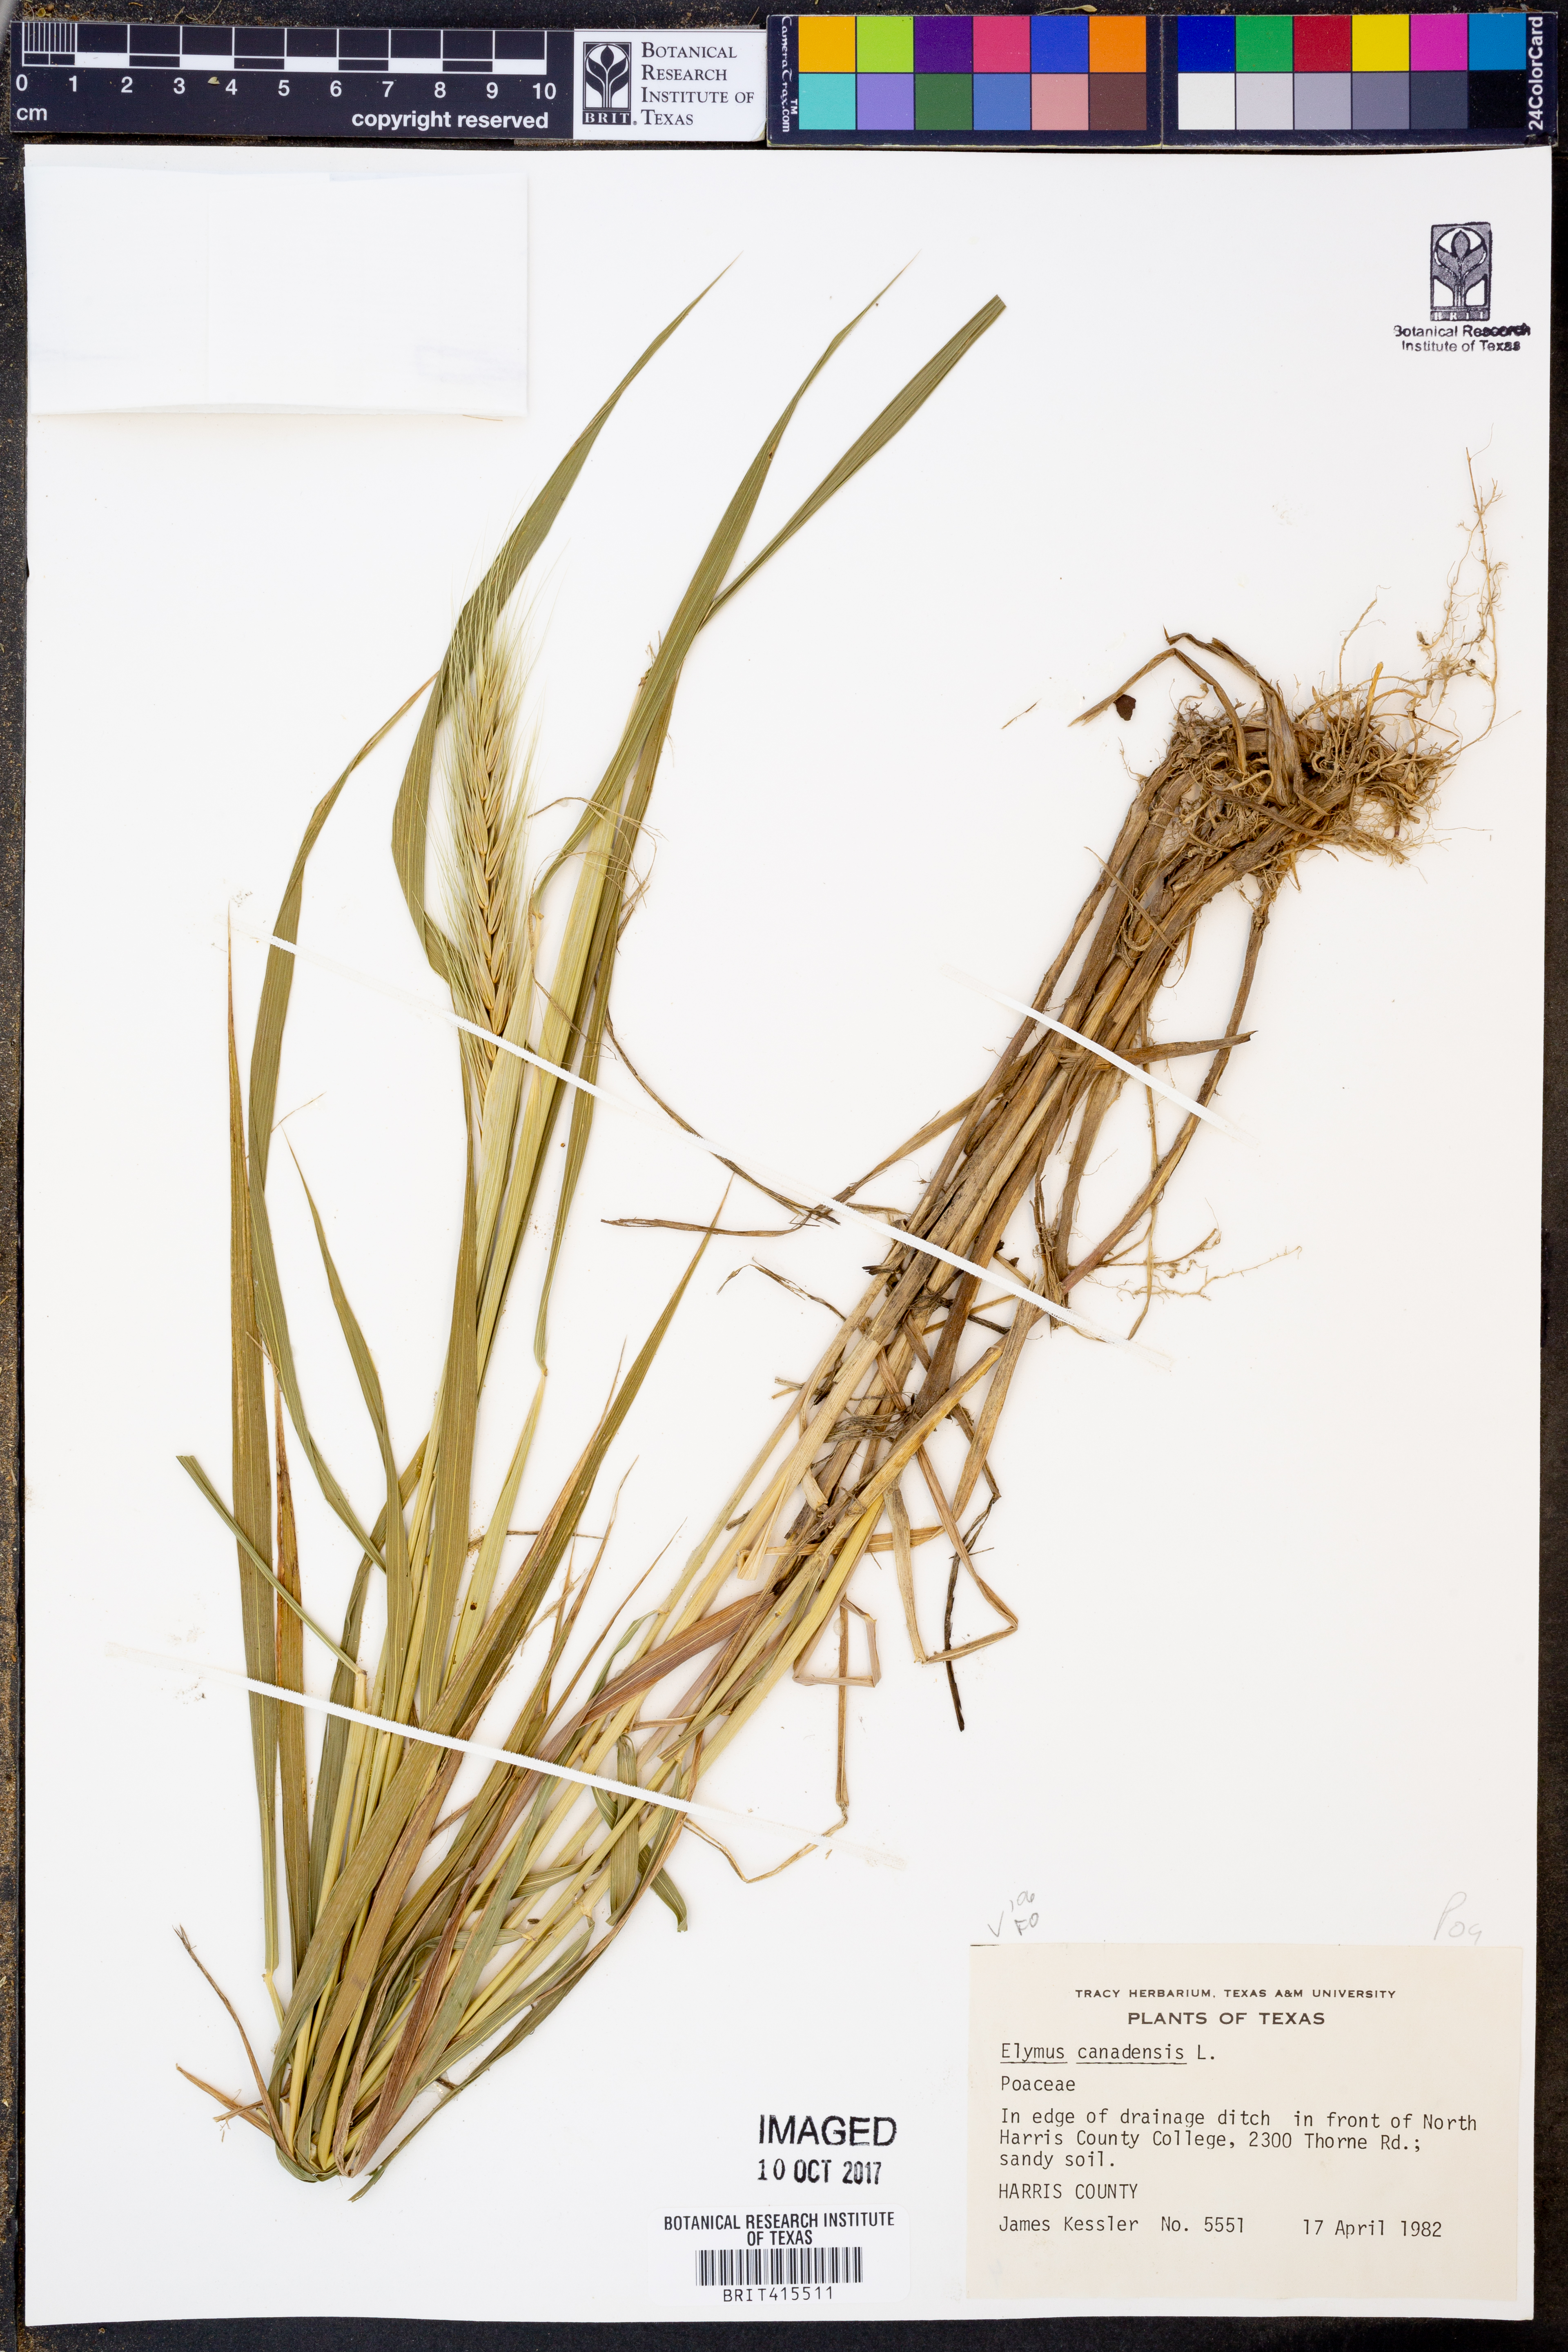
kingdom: Plantae
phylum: Tracheophyta
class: Liliopsida
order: Poales
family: Poaceae
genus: Elymus
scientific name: Elymus canadensis
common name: Canada wild rye
